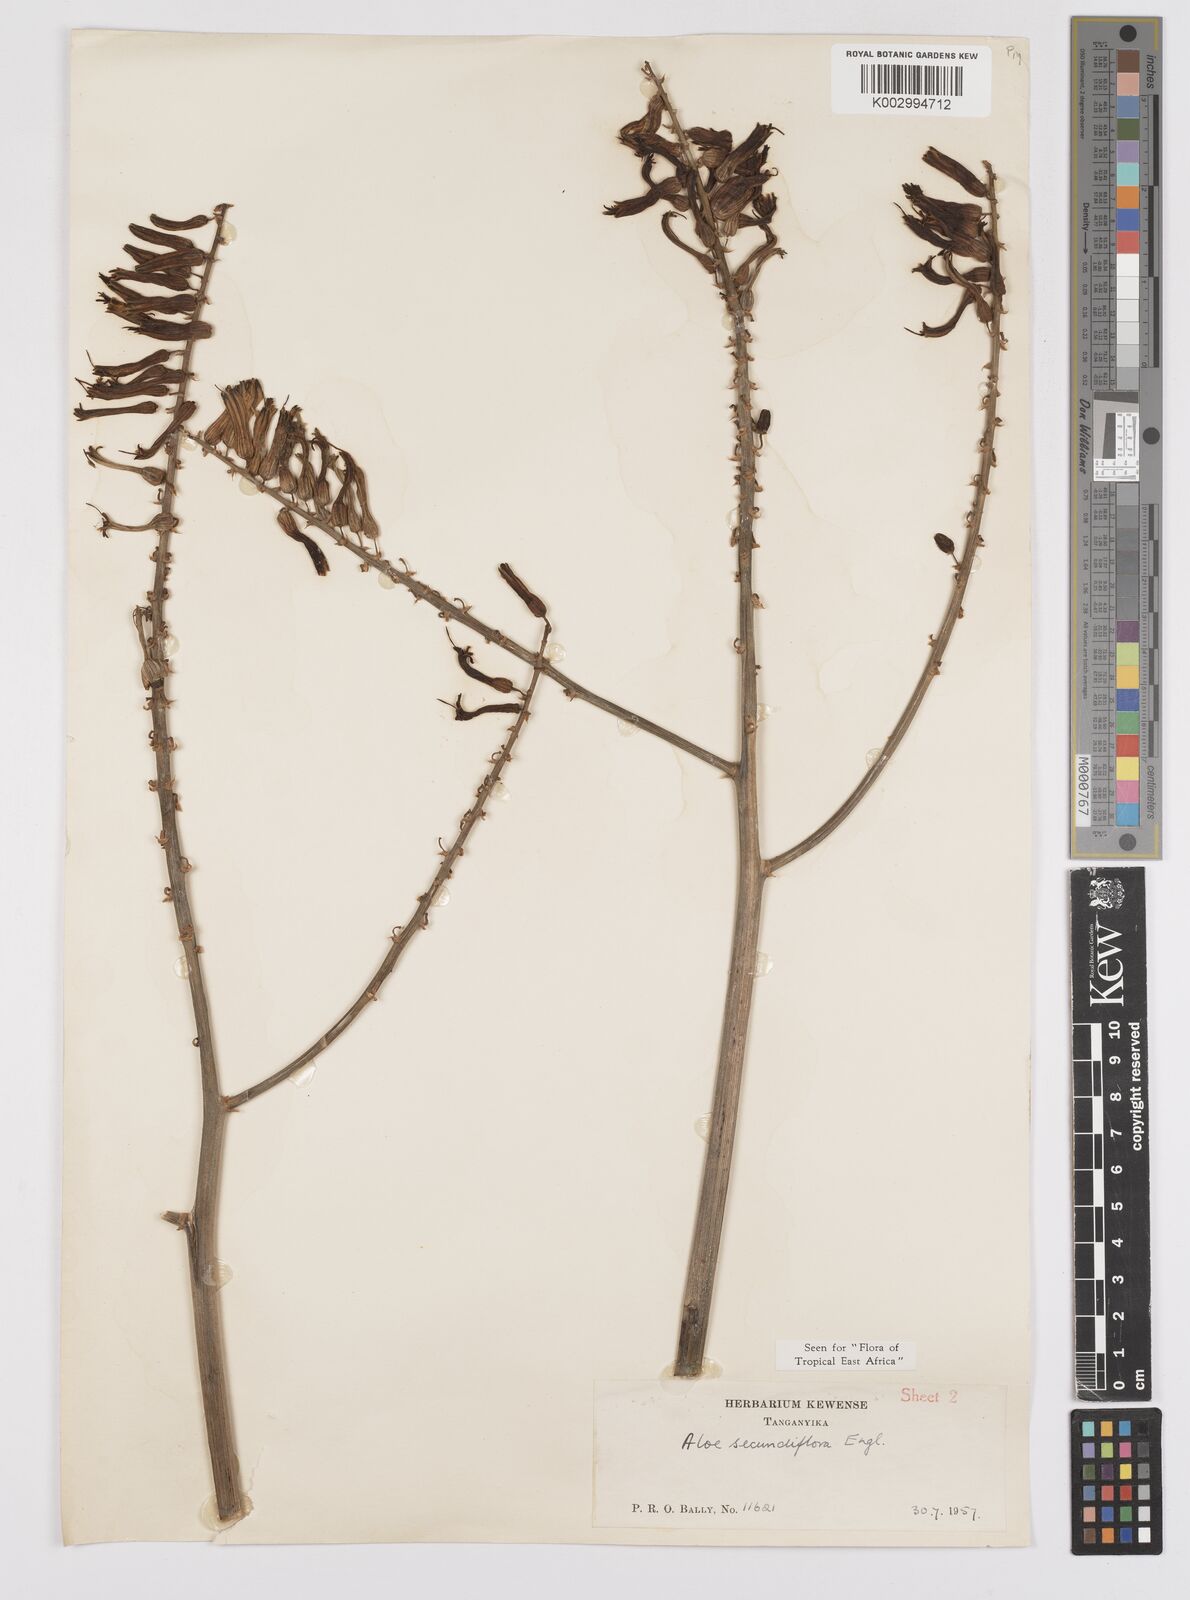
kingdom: Plantae
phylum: Tracheophyta
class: Liliopsida
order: Asparagales
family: Asphodelaceae
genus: Aloe
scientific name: Aloe secundiflora
